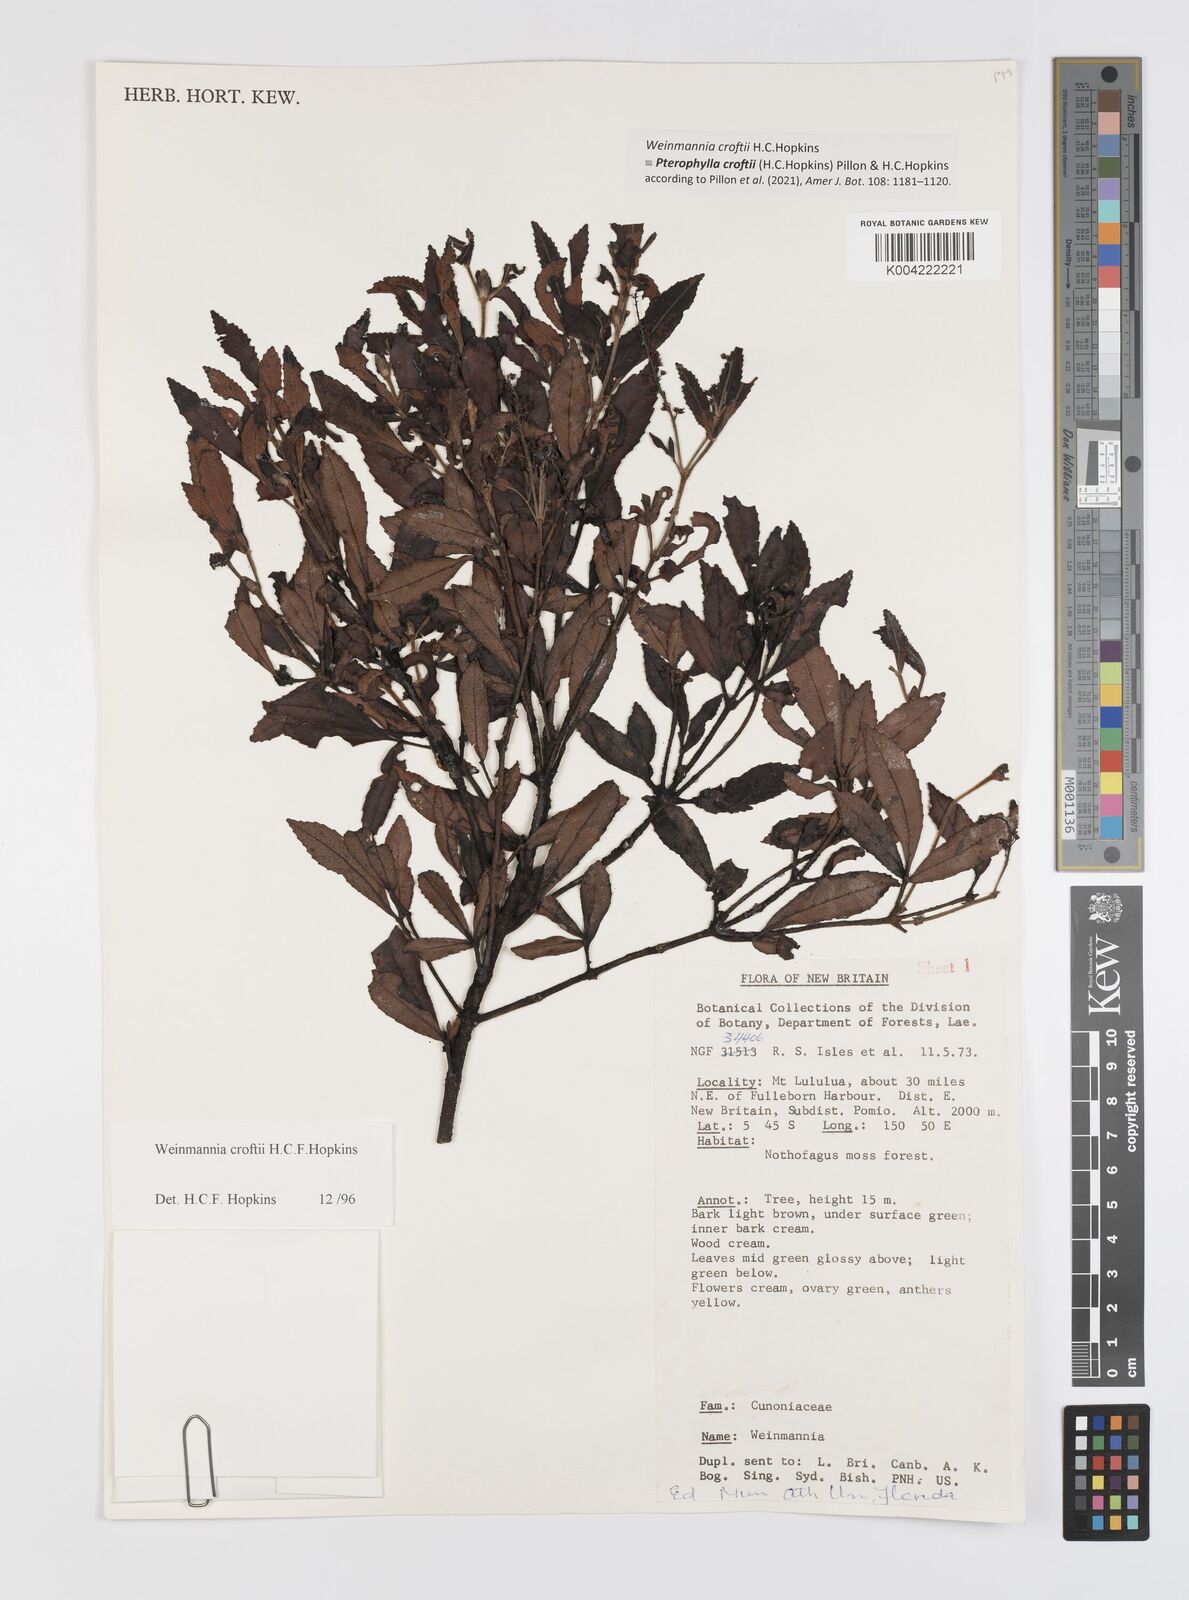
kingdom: Plantae
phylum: Tracheophyta
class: Magnoliopsida
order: Oxalidales
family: Cunoniaceae
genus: Pterophylla
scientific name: Pterophylla croftii
